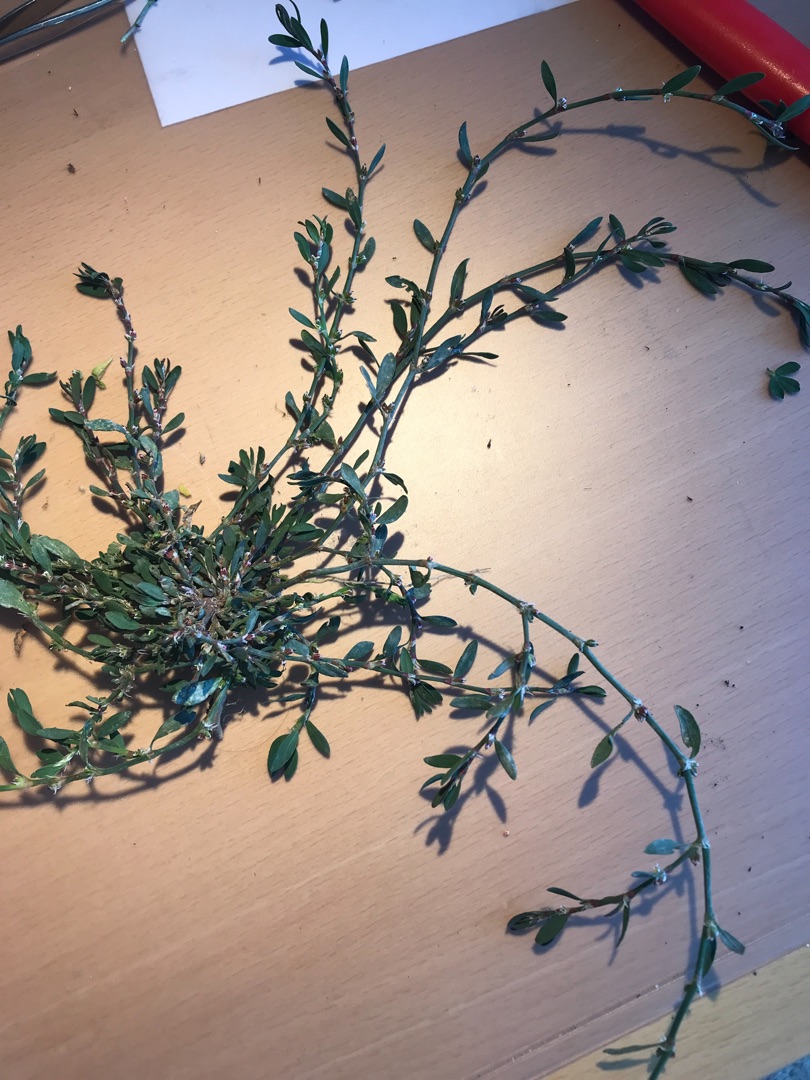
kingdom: Plantae
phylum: Tracheophyta
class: Magnoliopsida
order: Caryophyllales
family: Polygonaceae
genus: Polygonum
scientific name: Polygonum aviculare
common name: Vej-pileurt
